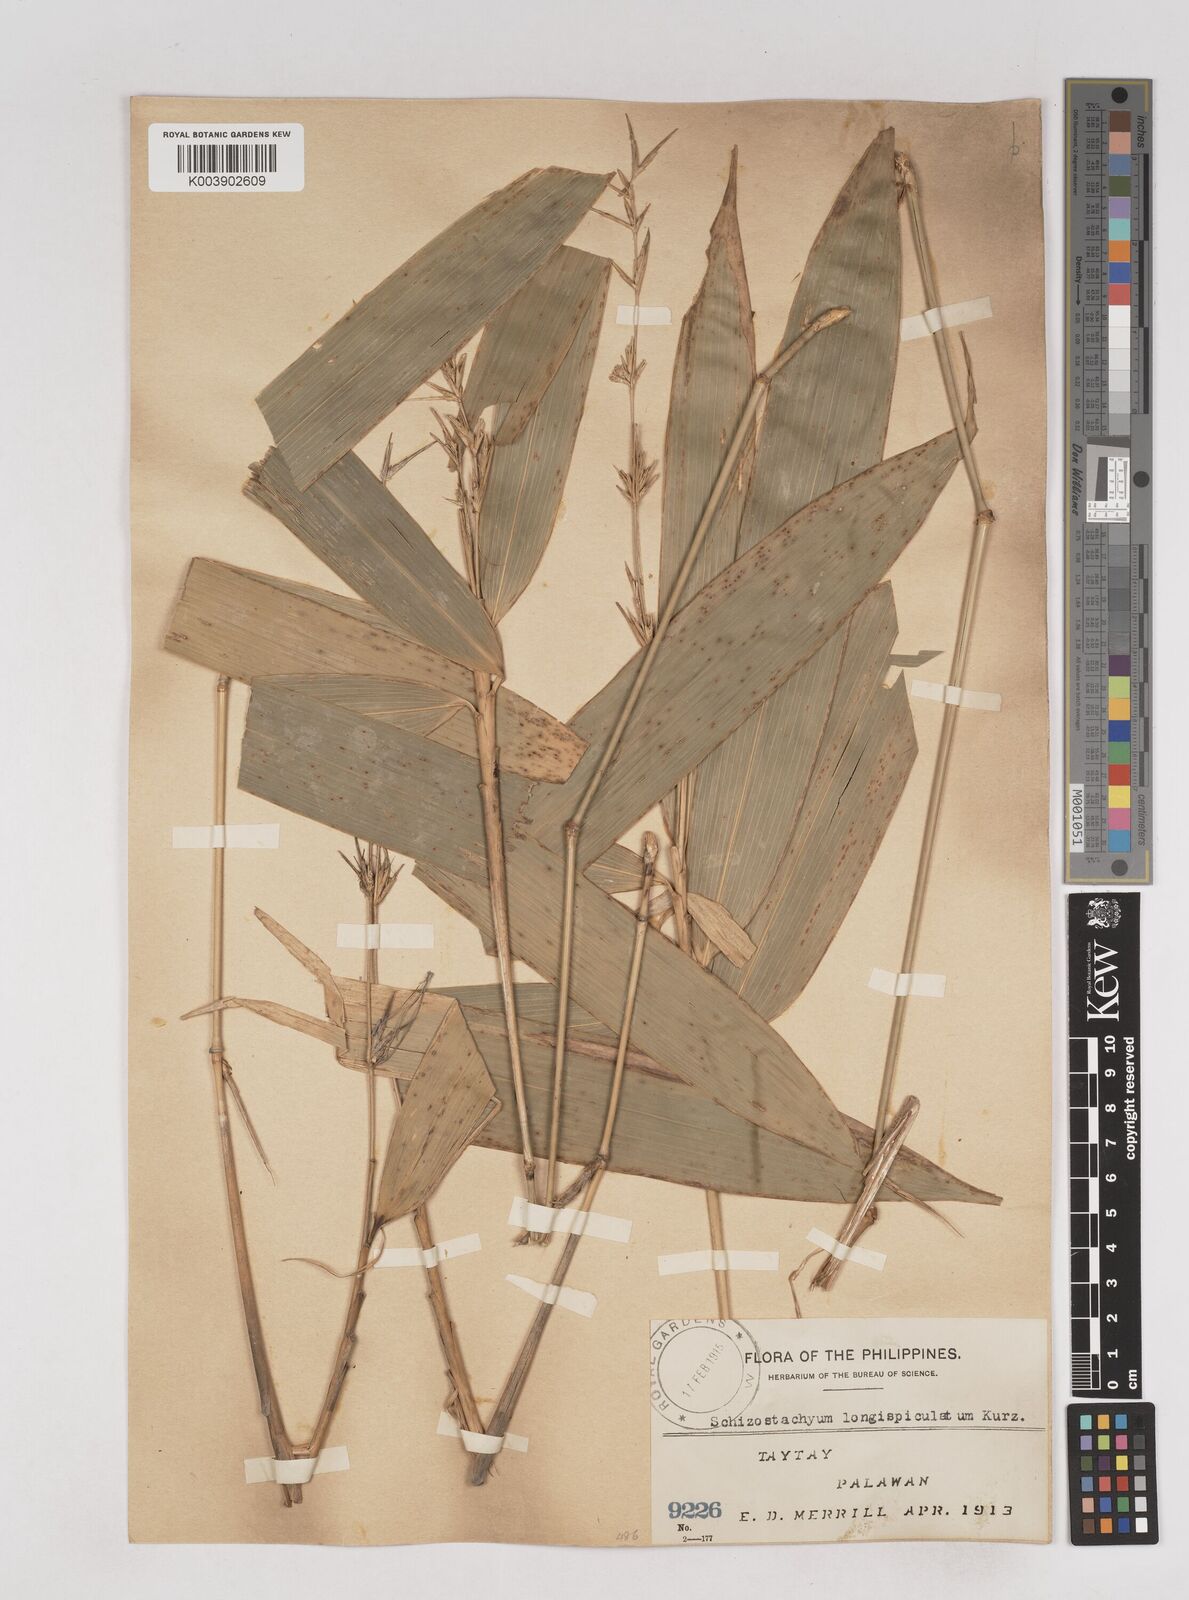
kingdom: Plantae
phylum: Tracheophyta
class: Liliopsida
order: Poales
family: Poaceae
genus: Schizostachyum
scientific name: Schizostachyum lima
